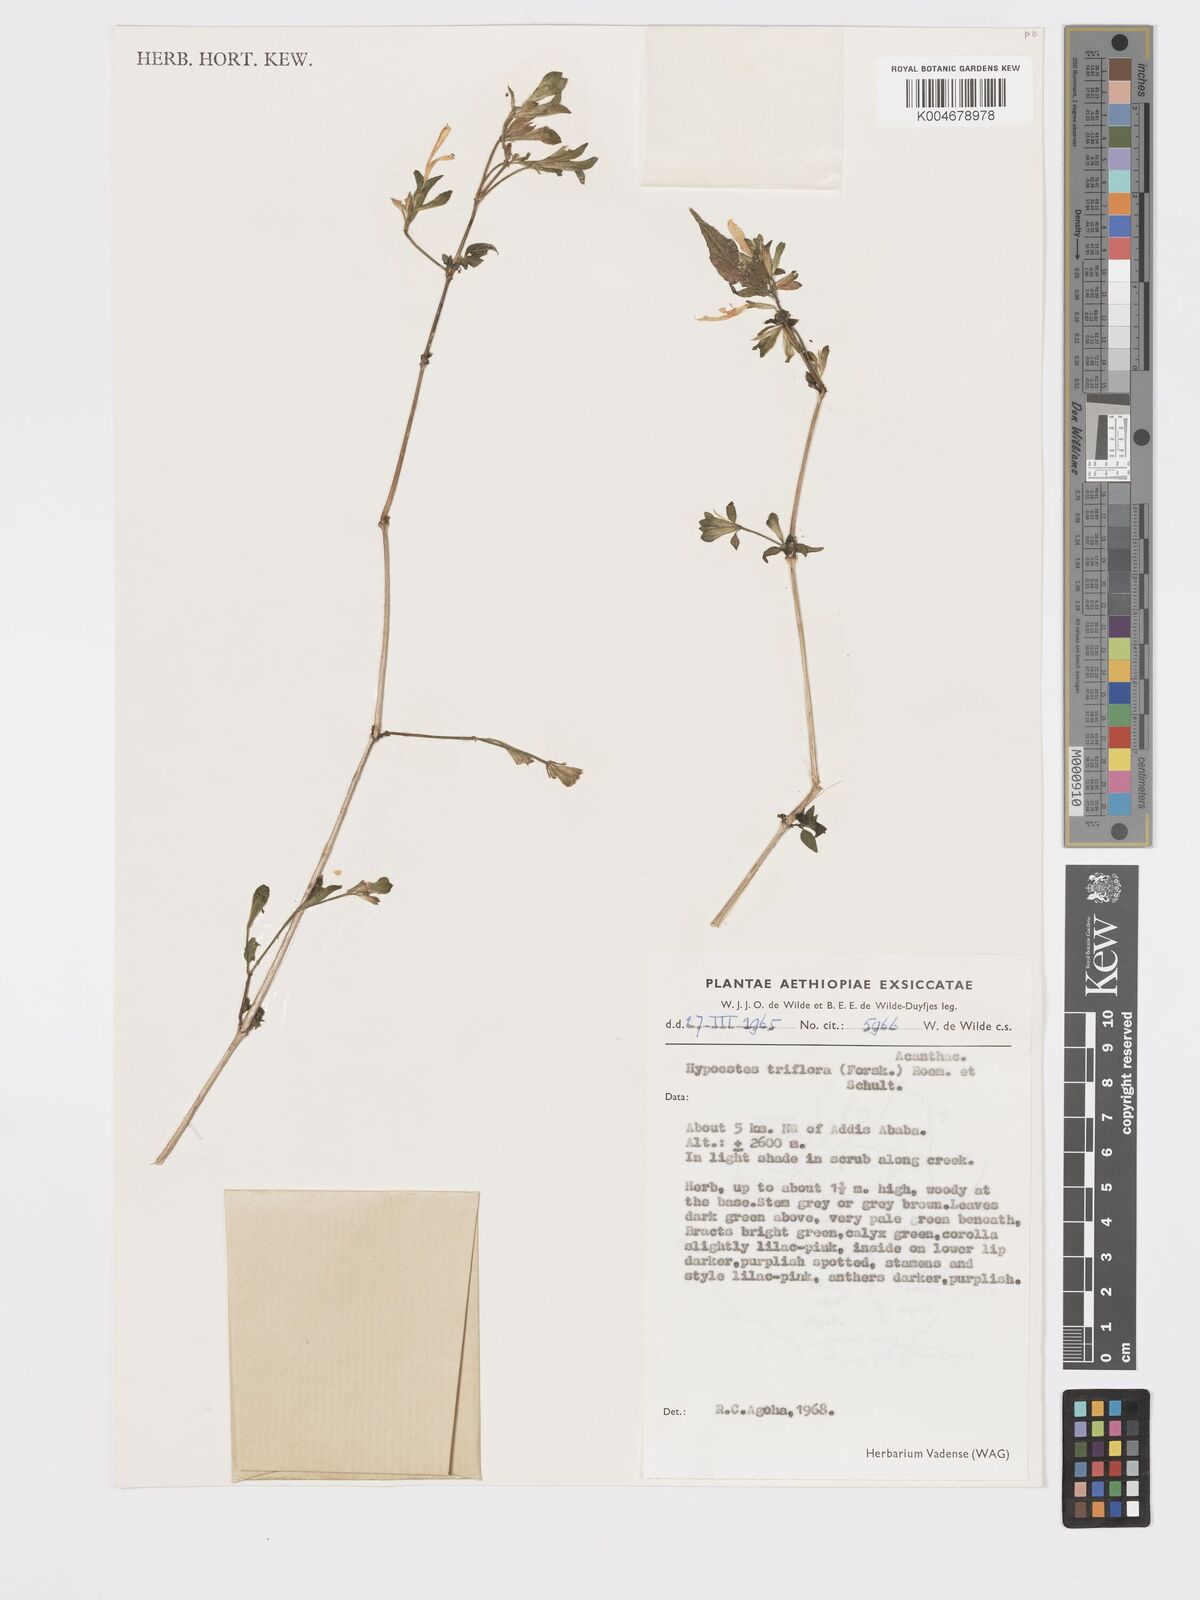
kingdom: Plantae
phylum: Tracheophyta
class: Magnoliopsida
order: Lamiales
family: Acanthaceae
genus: Hypoestes
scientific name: Hypoestes triflora
